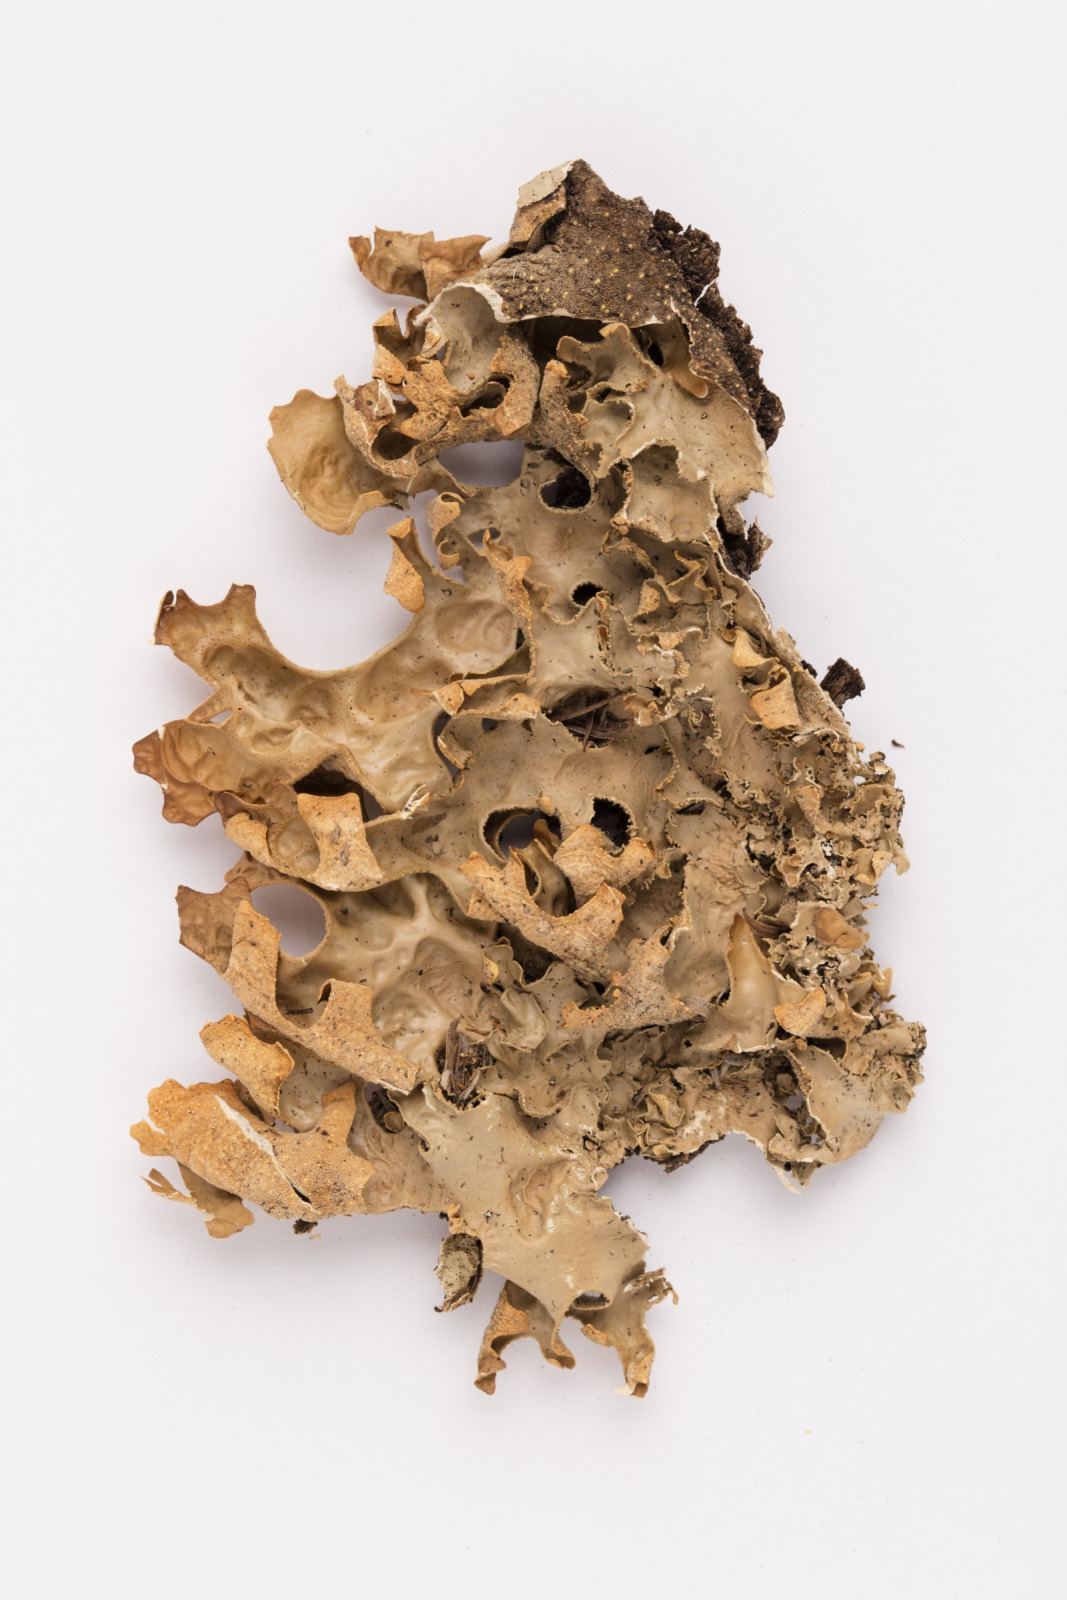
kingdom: Fungi
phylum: Ascomycota
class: Lecanoromycetes
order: Peltigerales
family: Lobariaceae
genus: Pseudocyphellaria
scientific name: Pseudocyphellaria carpoloma
